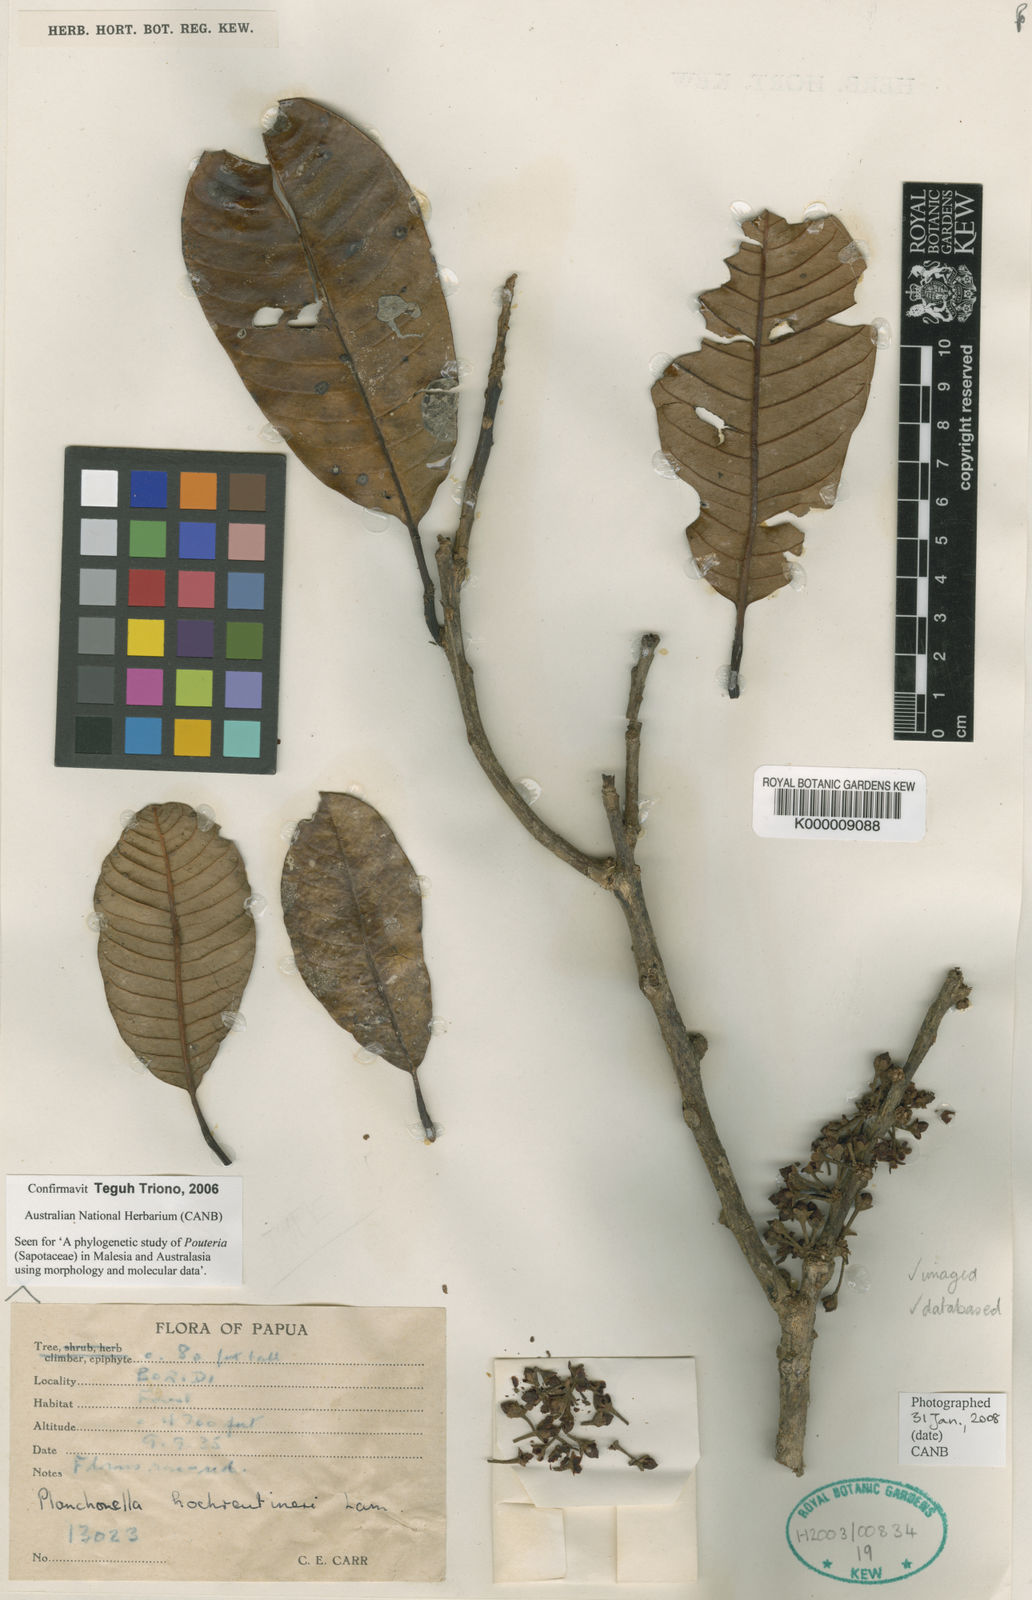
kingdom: Plantae
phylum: Tracheophyta
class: Magnoliopsida
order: Ericales
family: Sapotaceae
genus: Pichonia
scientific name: Pichonia hochreutineri
